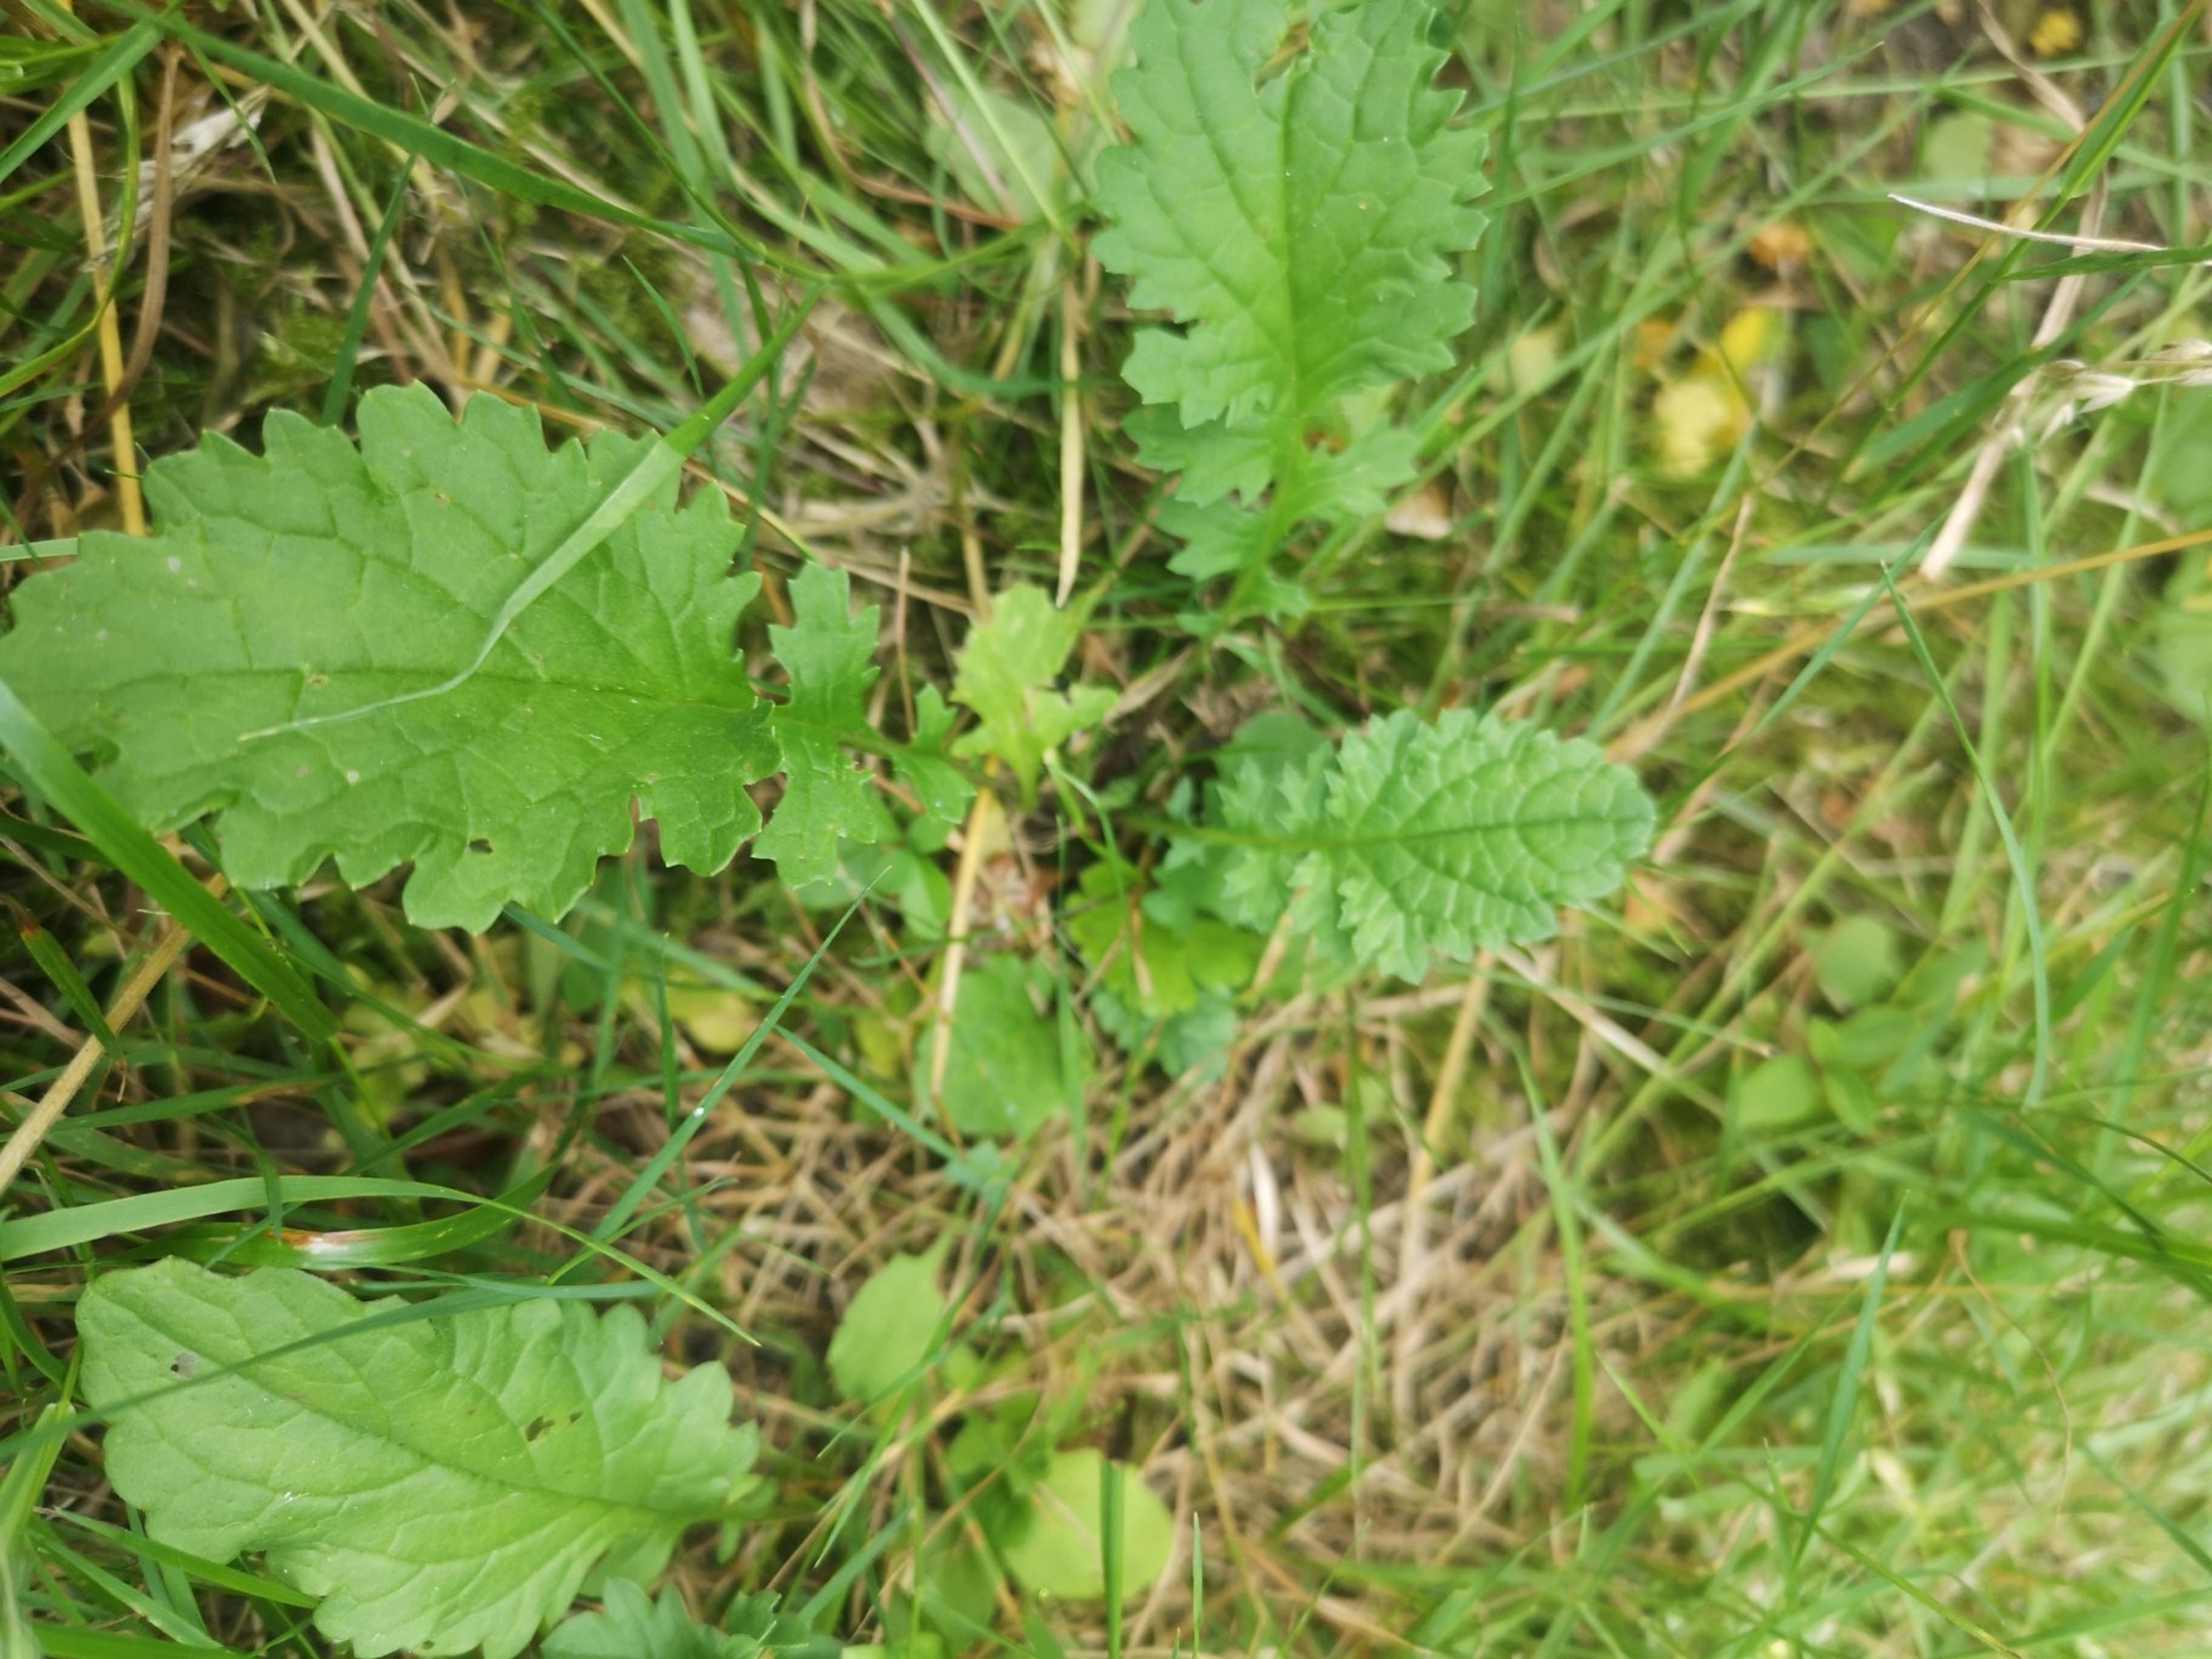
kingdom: Plantae
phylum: Tracheophyta
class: Magnoliopsida
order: Asterales
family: Asteraceae
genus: Jacobaea
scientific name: Jacobaea vulgaris
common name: Eng-brandbæger
